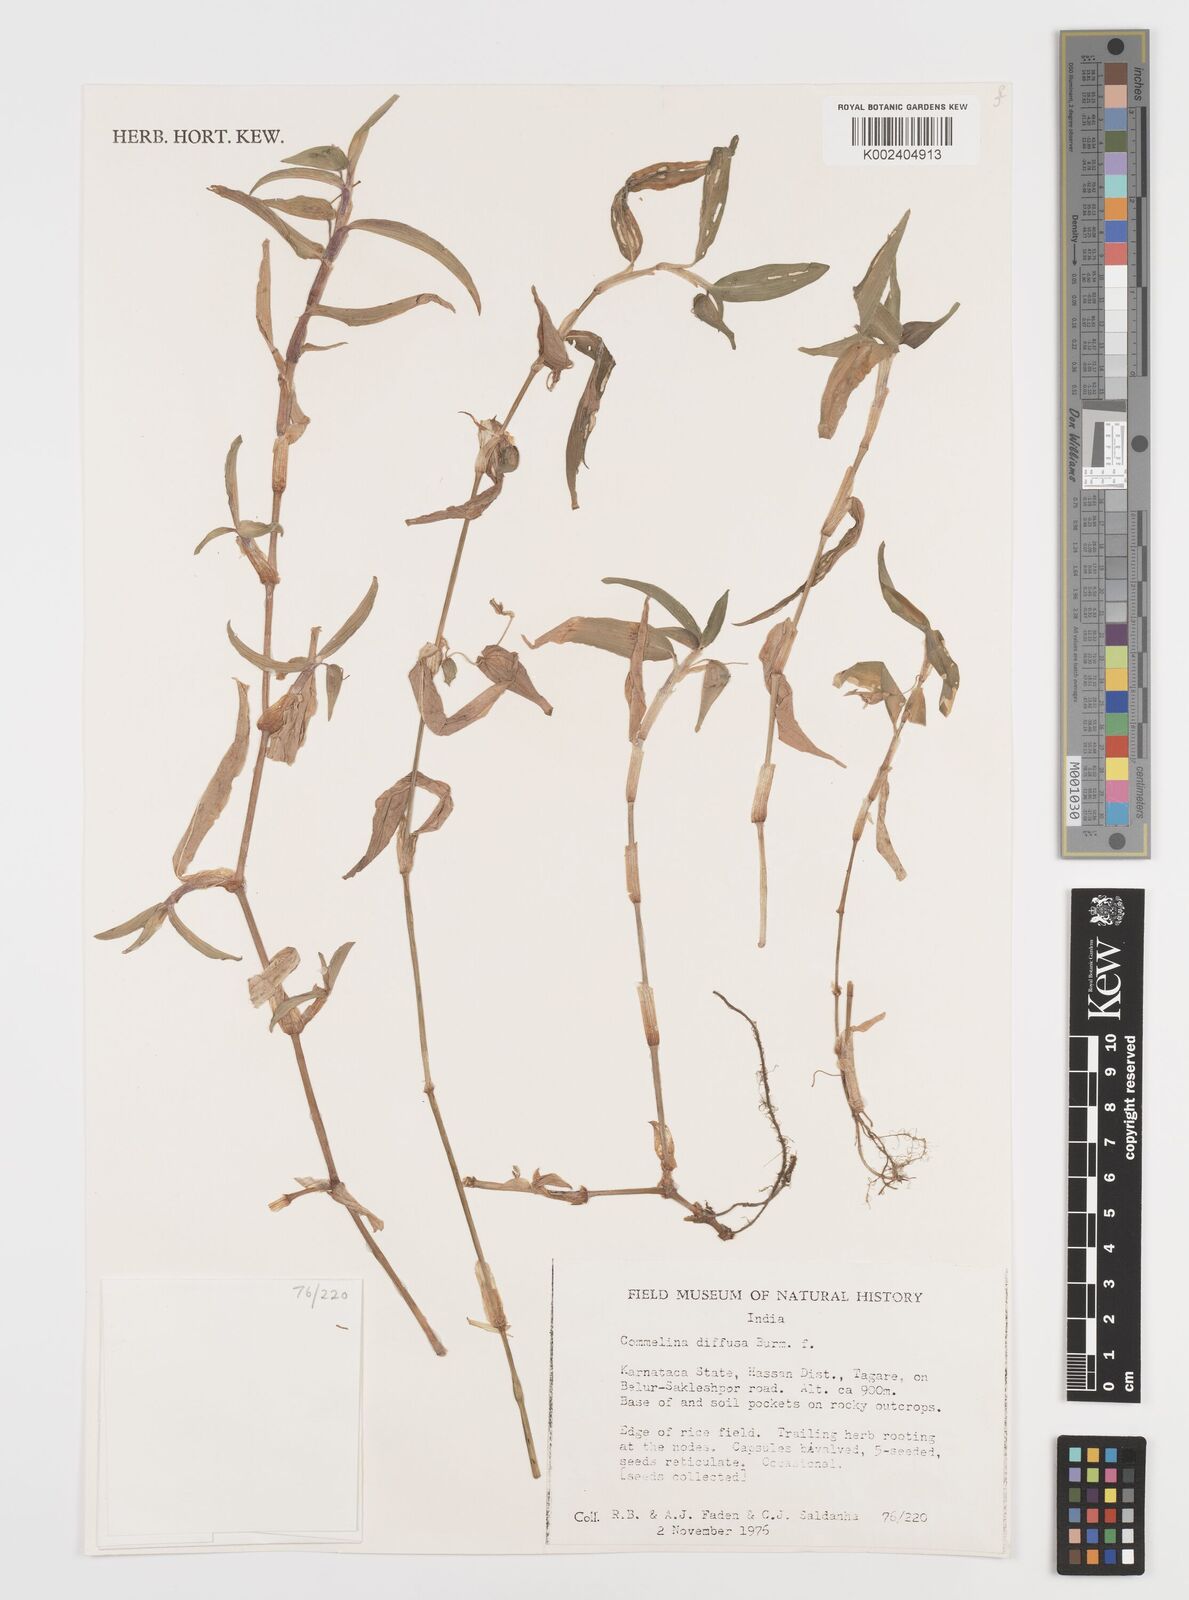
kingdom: Plantae
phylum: Tracheophyta
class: Liliopsida
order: Commelinales
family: Commelinaceae
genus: Commelina
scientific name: Commelina diffusa
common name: Climbing dayflower
